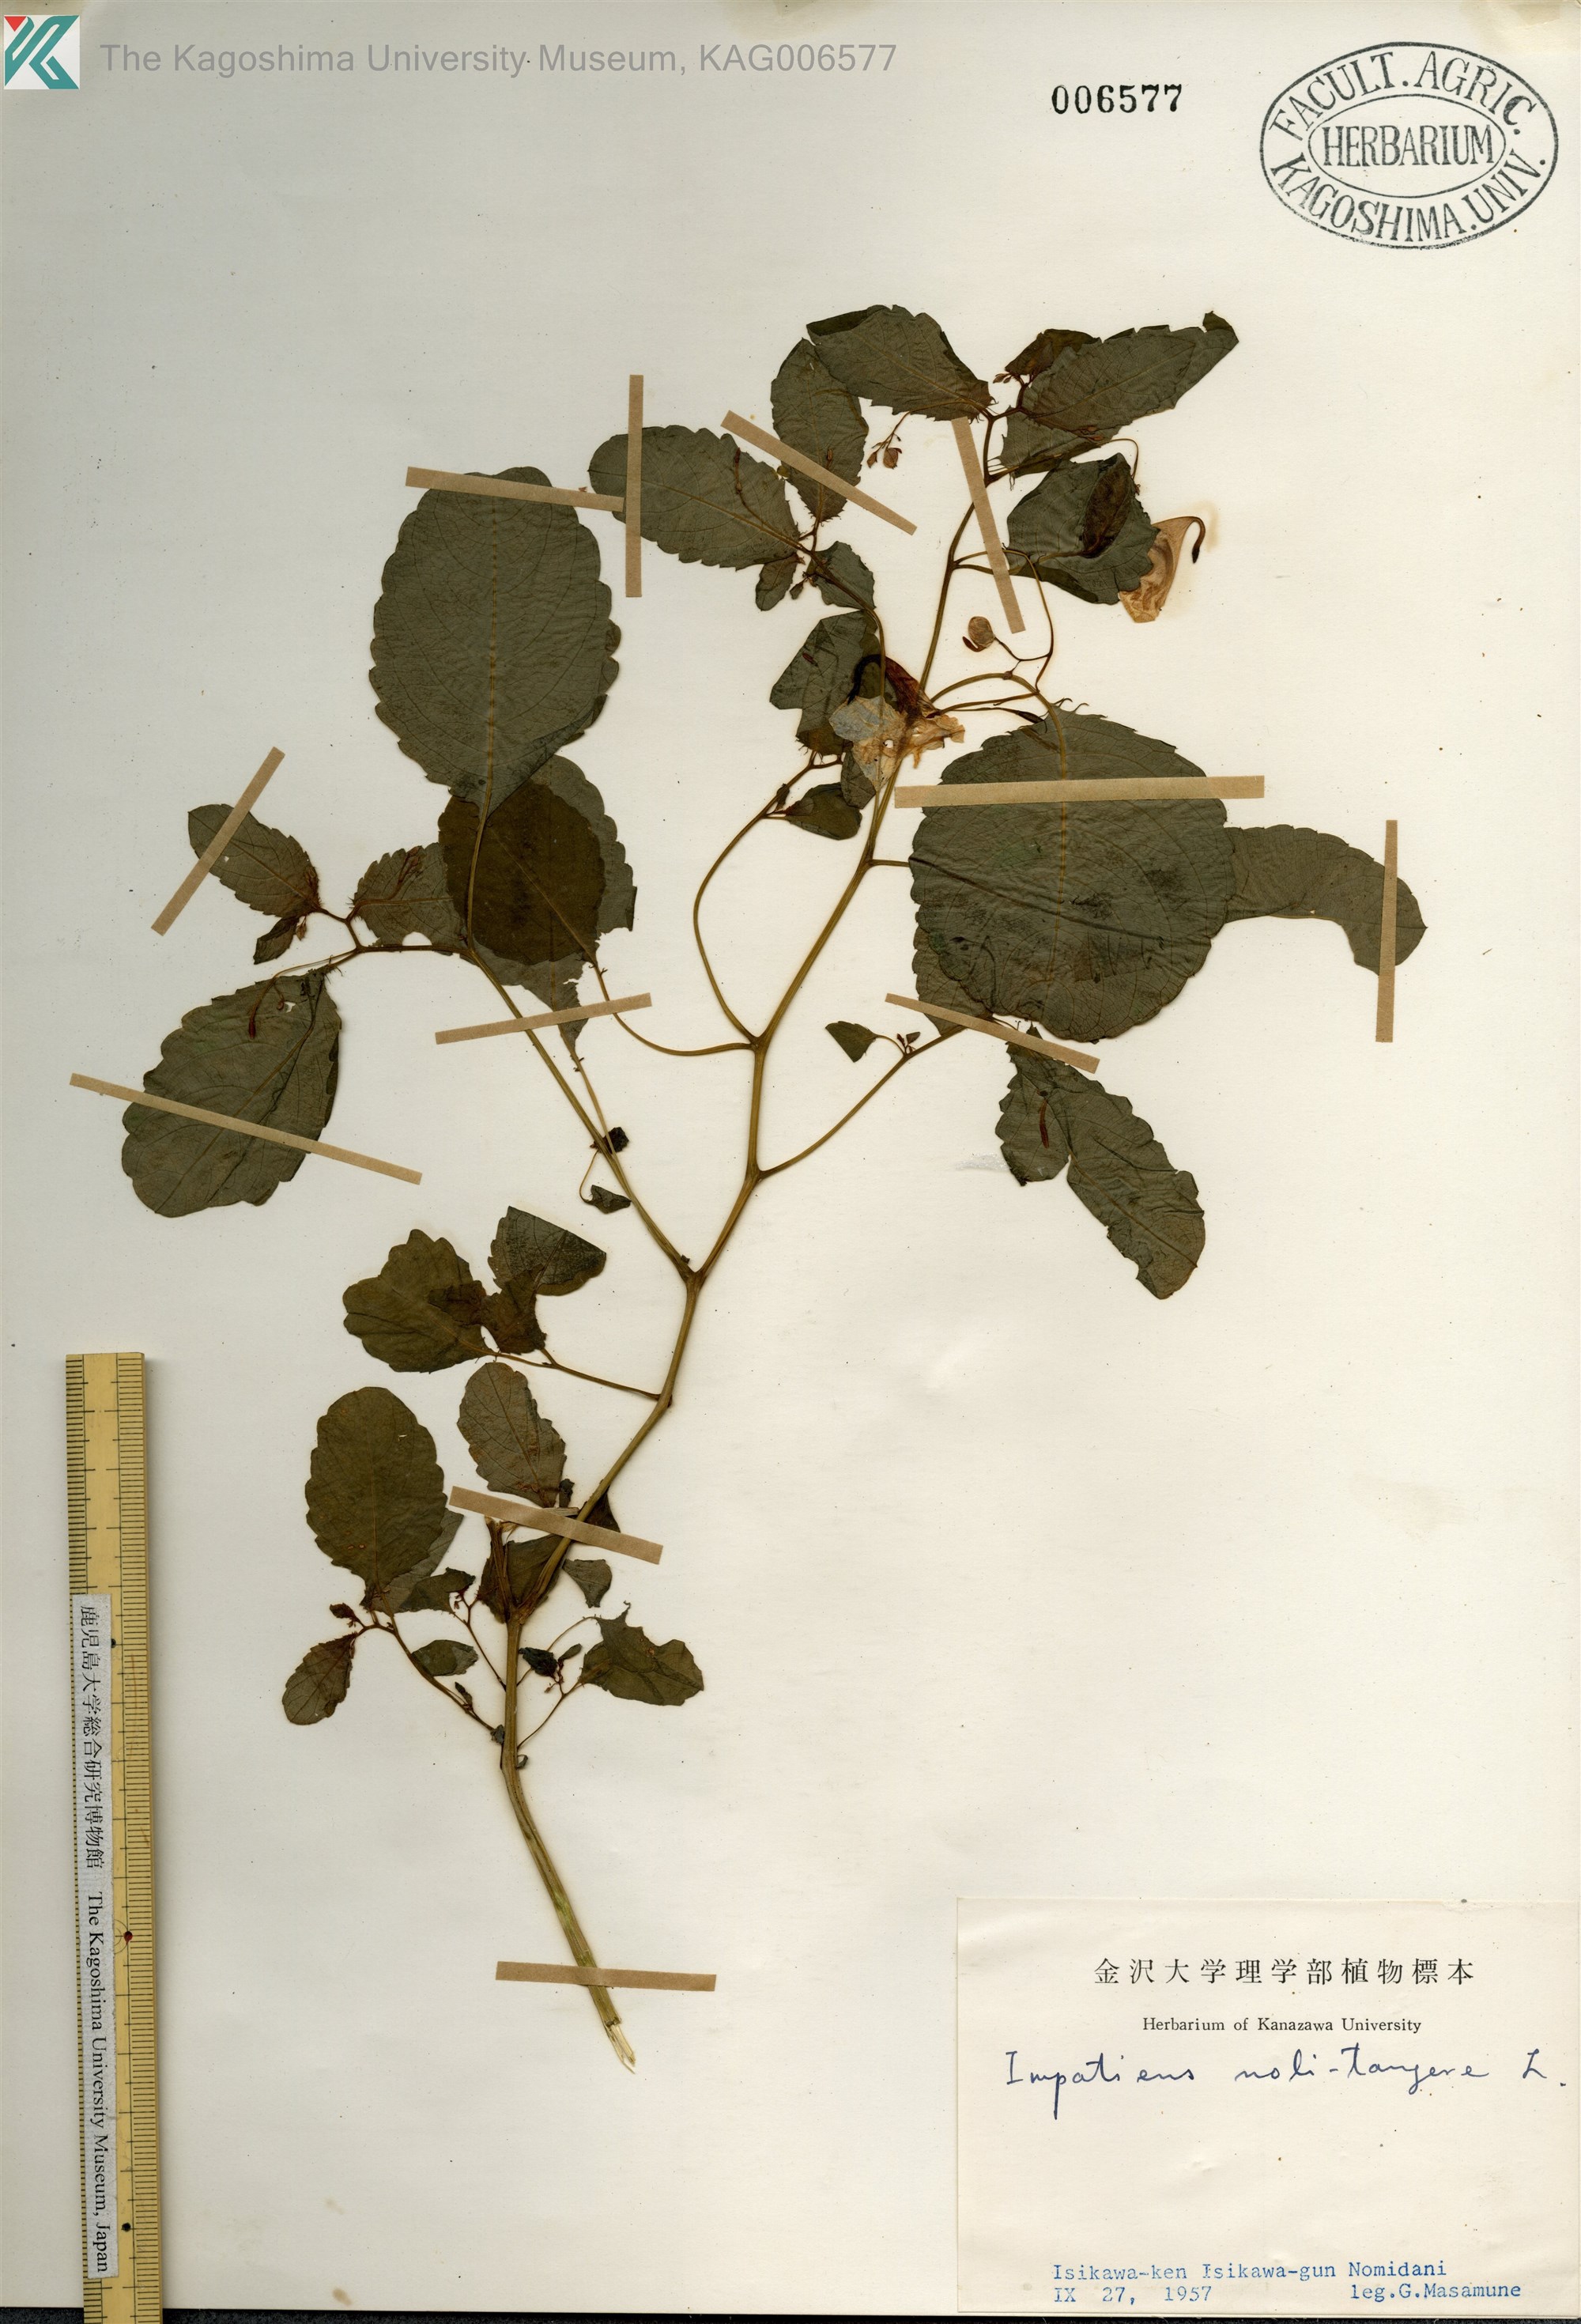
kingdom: Plantae
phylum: Tracheophyta
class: Magnoliopsida
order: Ericales
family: Balsaminaceae
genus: Impatiens
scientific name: Impatiens noli-tangere
